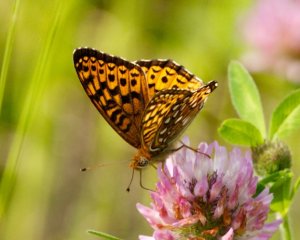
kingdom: Animalia
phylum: Arthropoda
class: Insecta
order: Lepidoptera
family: Nymphalidae
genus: Speyeria
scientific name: Speyeria atlantis
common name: Atlantis Fritillary
